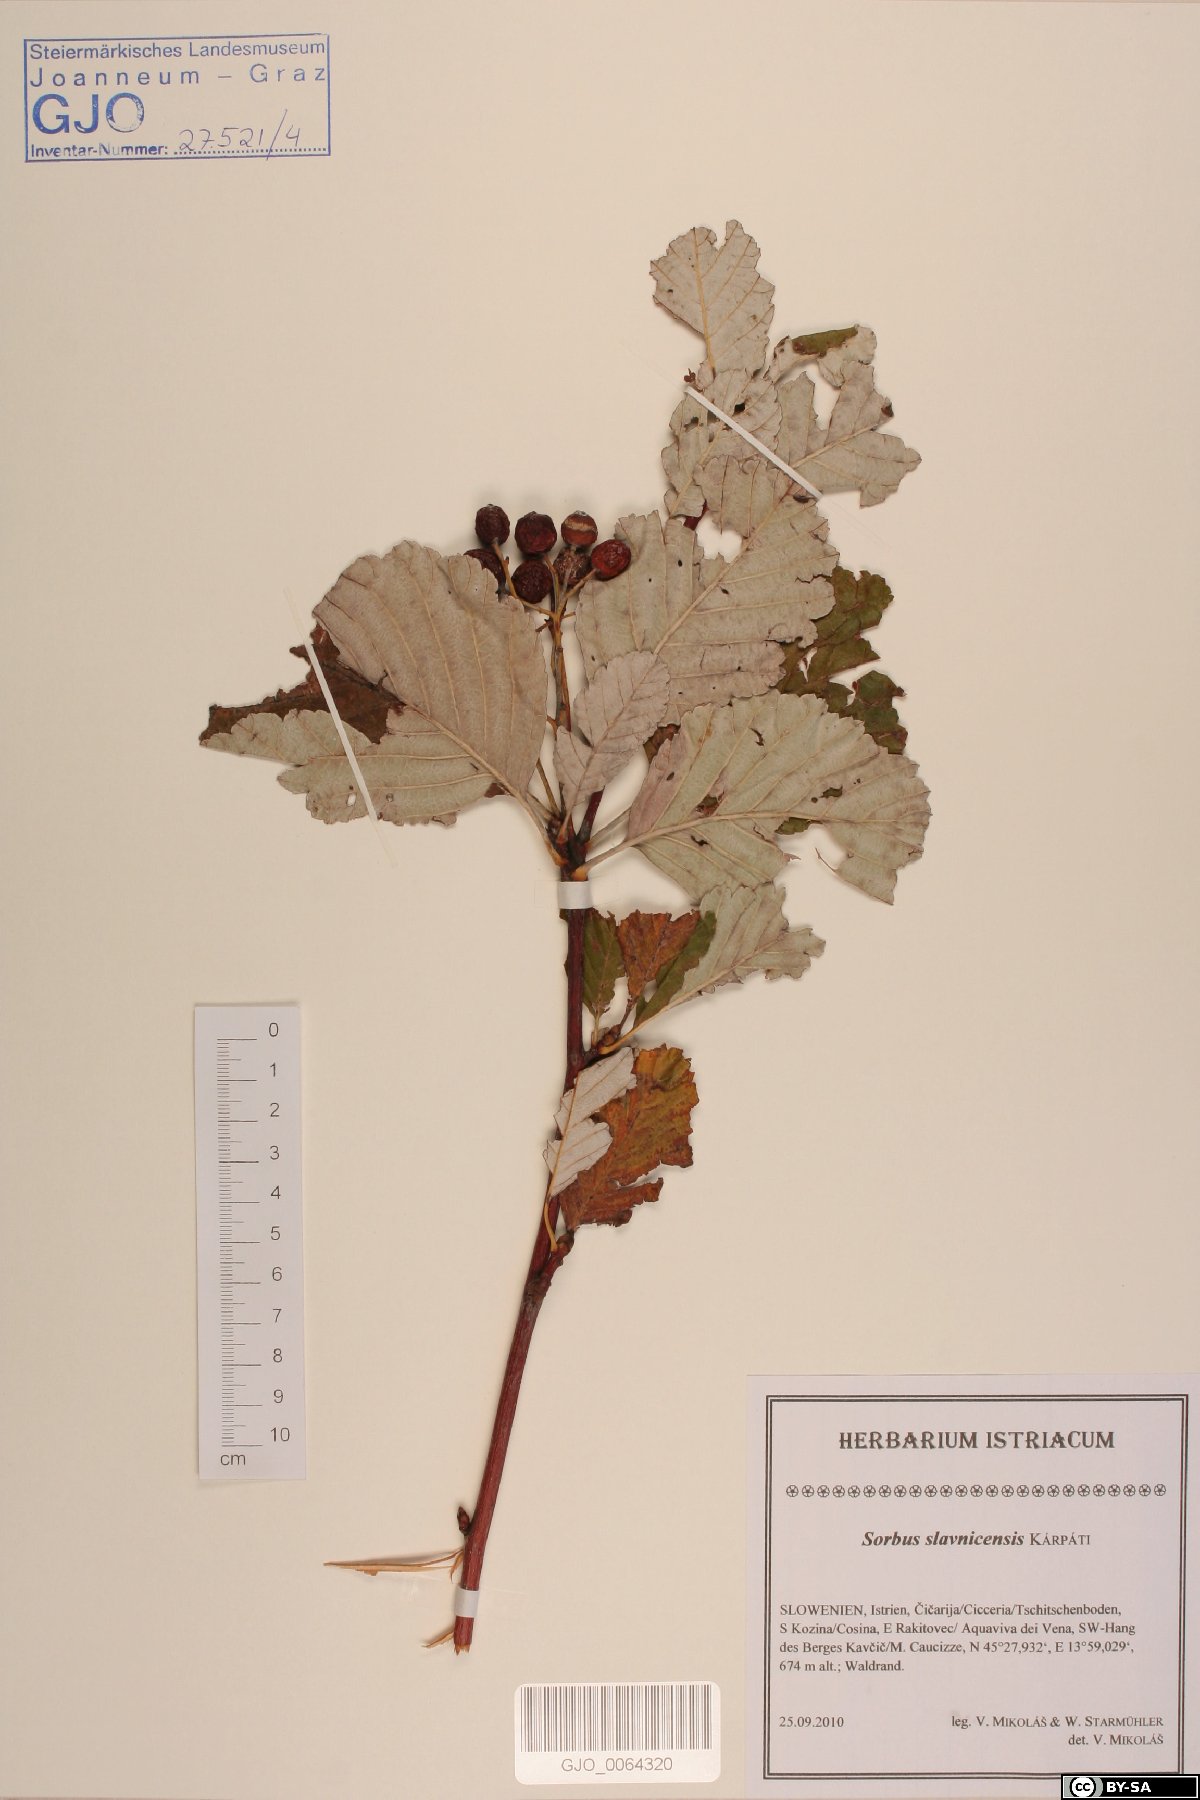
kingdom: Plantae
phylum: Tracheophyta
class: Magnoliopsida
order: Rosales
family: Rosaceae
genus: Karpatiosorbus
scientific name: Karpatiosorbus slavnicensis
